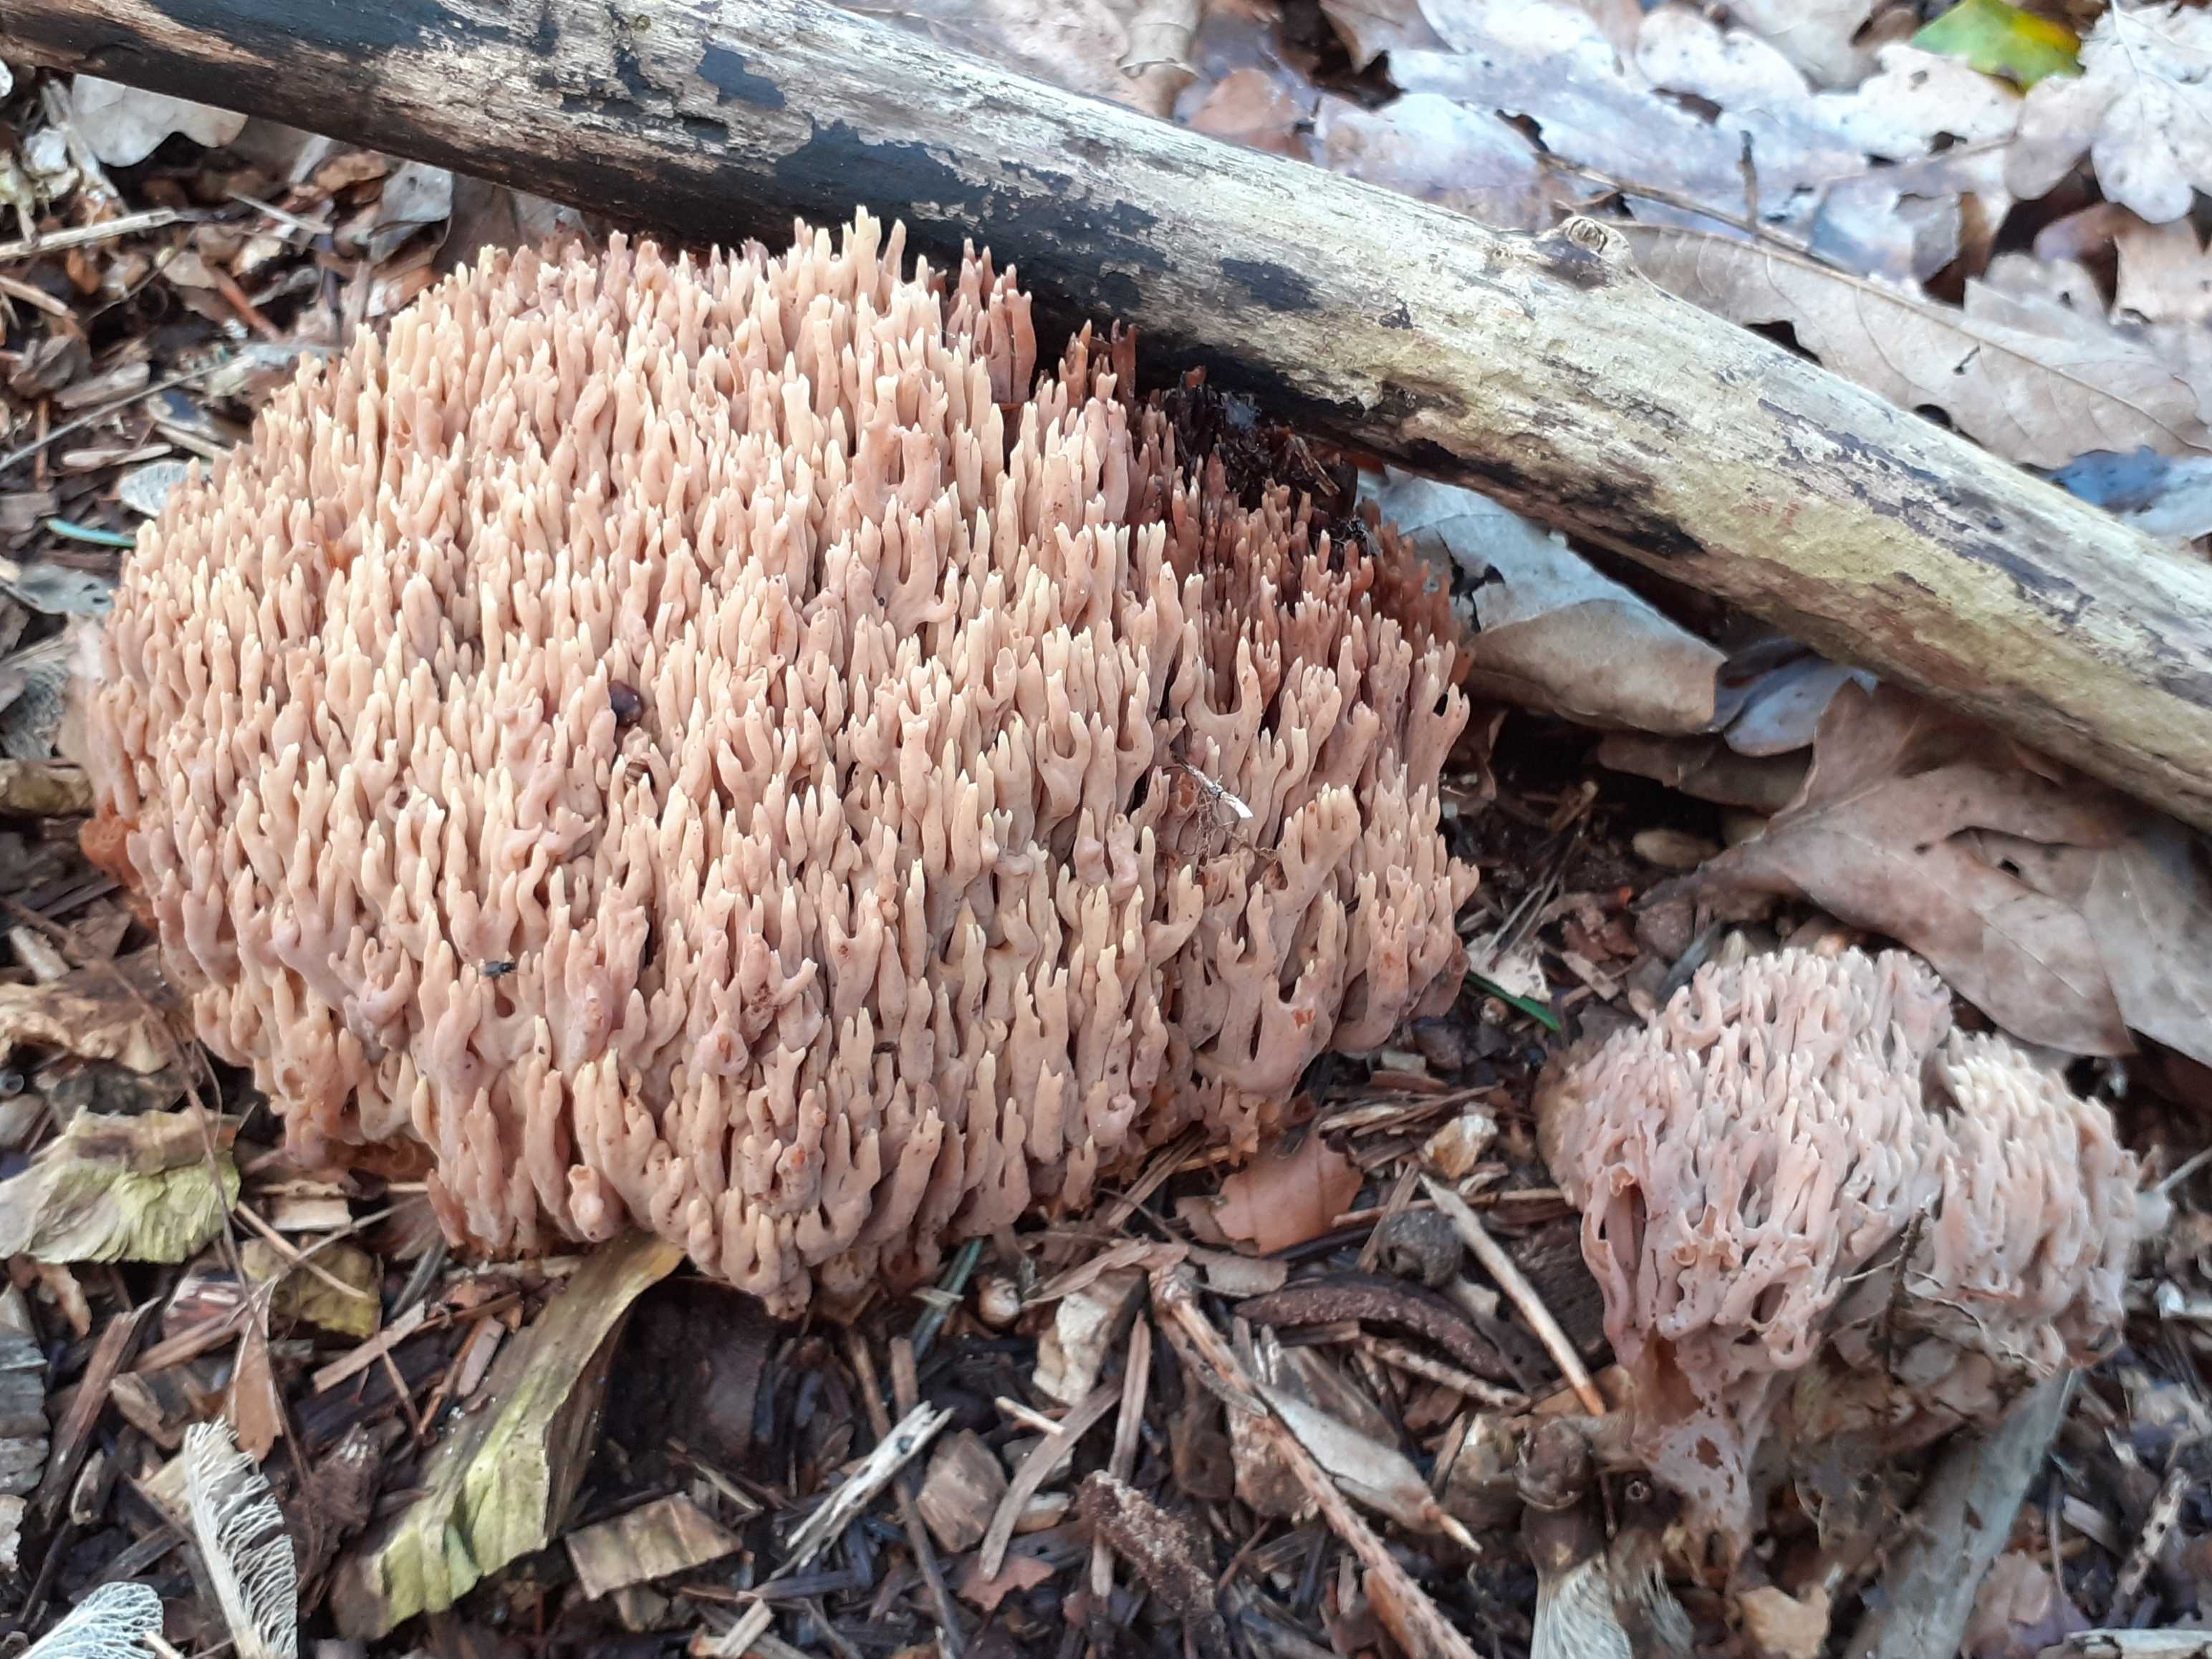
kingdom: Fungi
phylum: Basidiomycota
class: Agaricomycetes
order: Gomphales
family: Gomphaceae
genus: Ramaria
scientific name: Ramaria stricta
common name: rank koralsvamp
